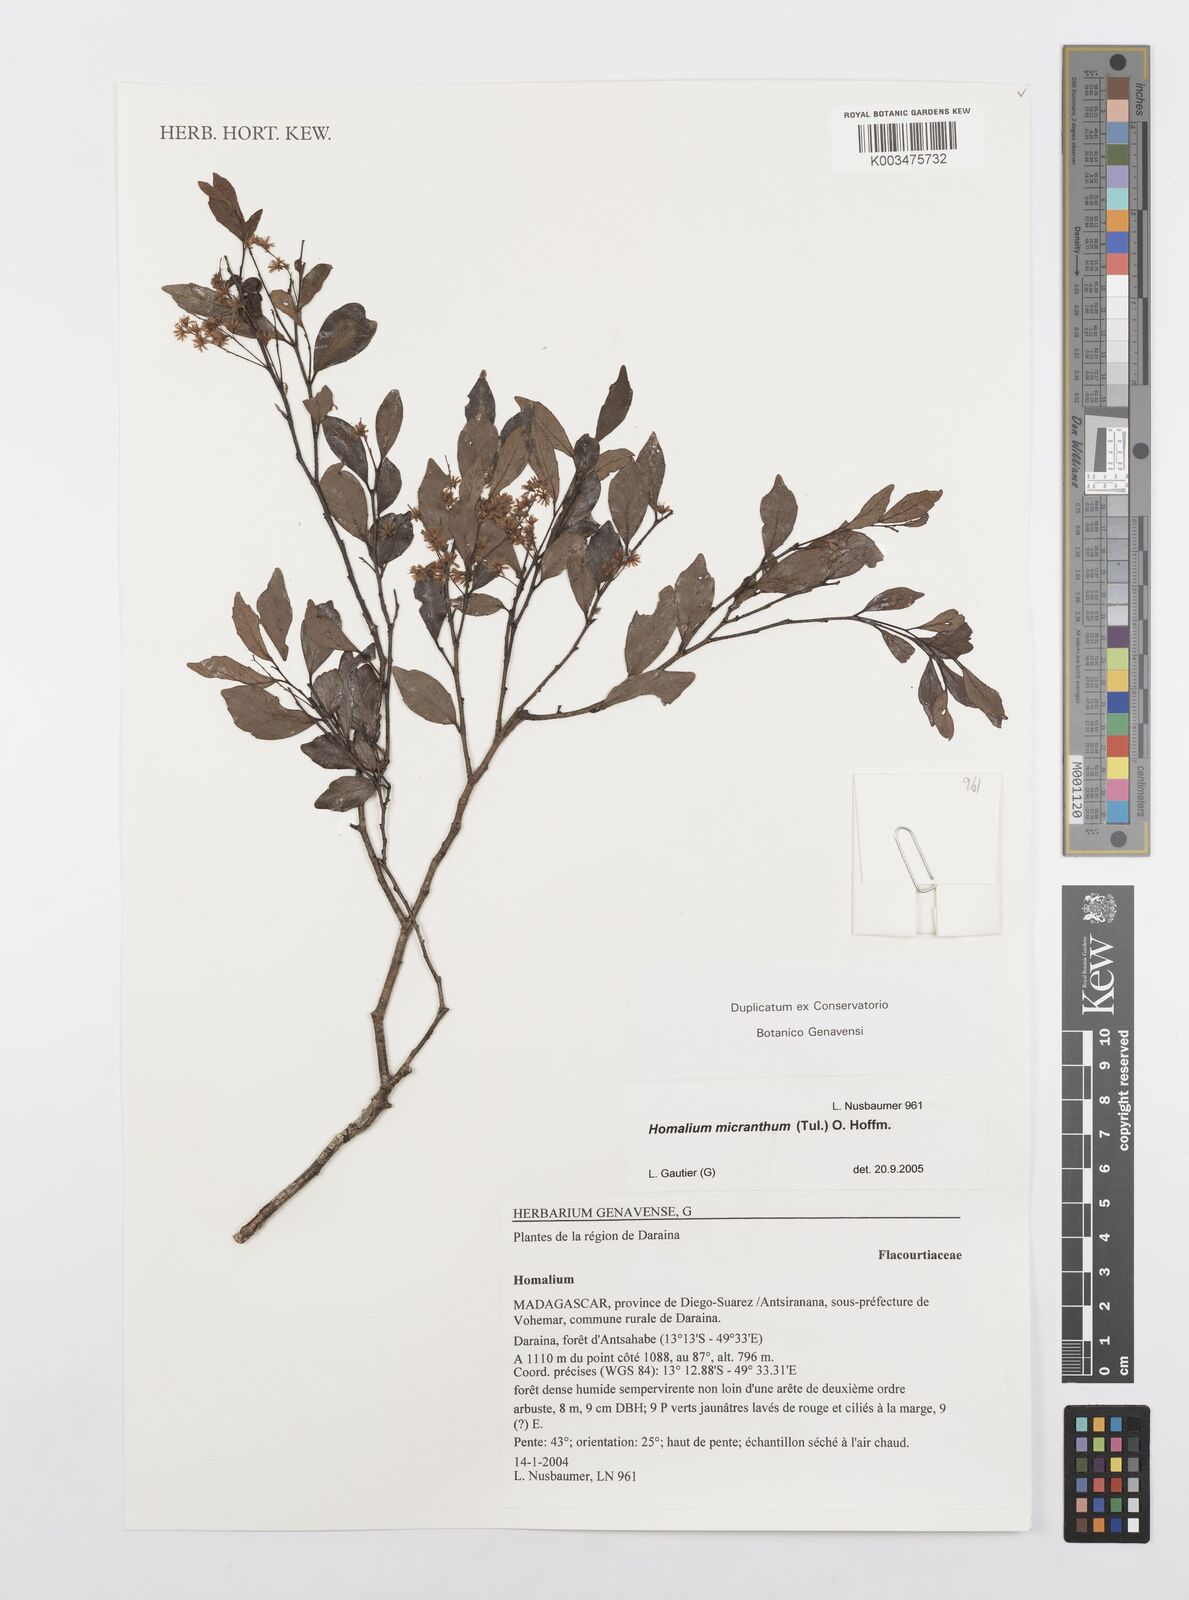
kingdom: Plantae
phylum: Tracheophyta
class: Magnoliopsida
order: Malpighiales
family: Salicaceae
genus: Homalium
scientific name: Homalium micranthum
